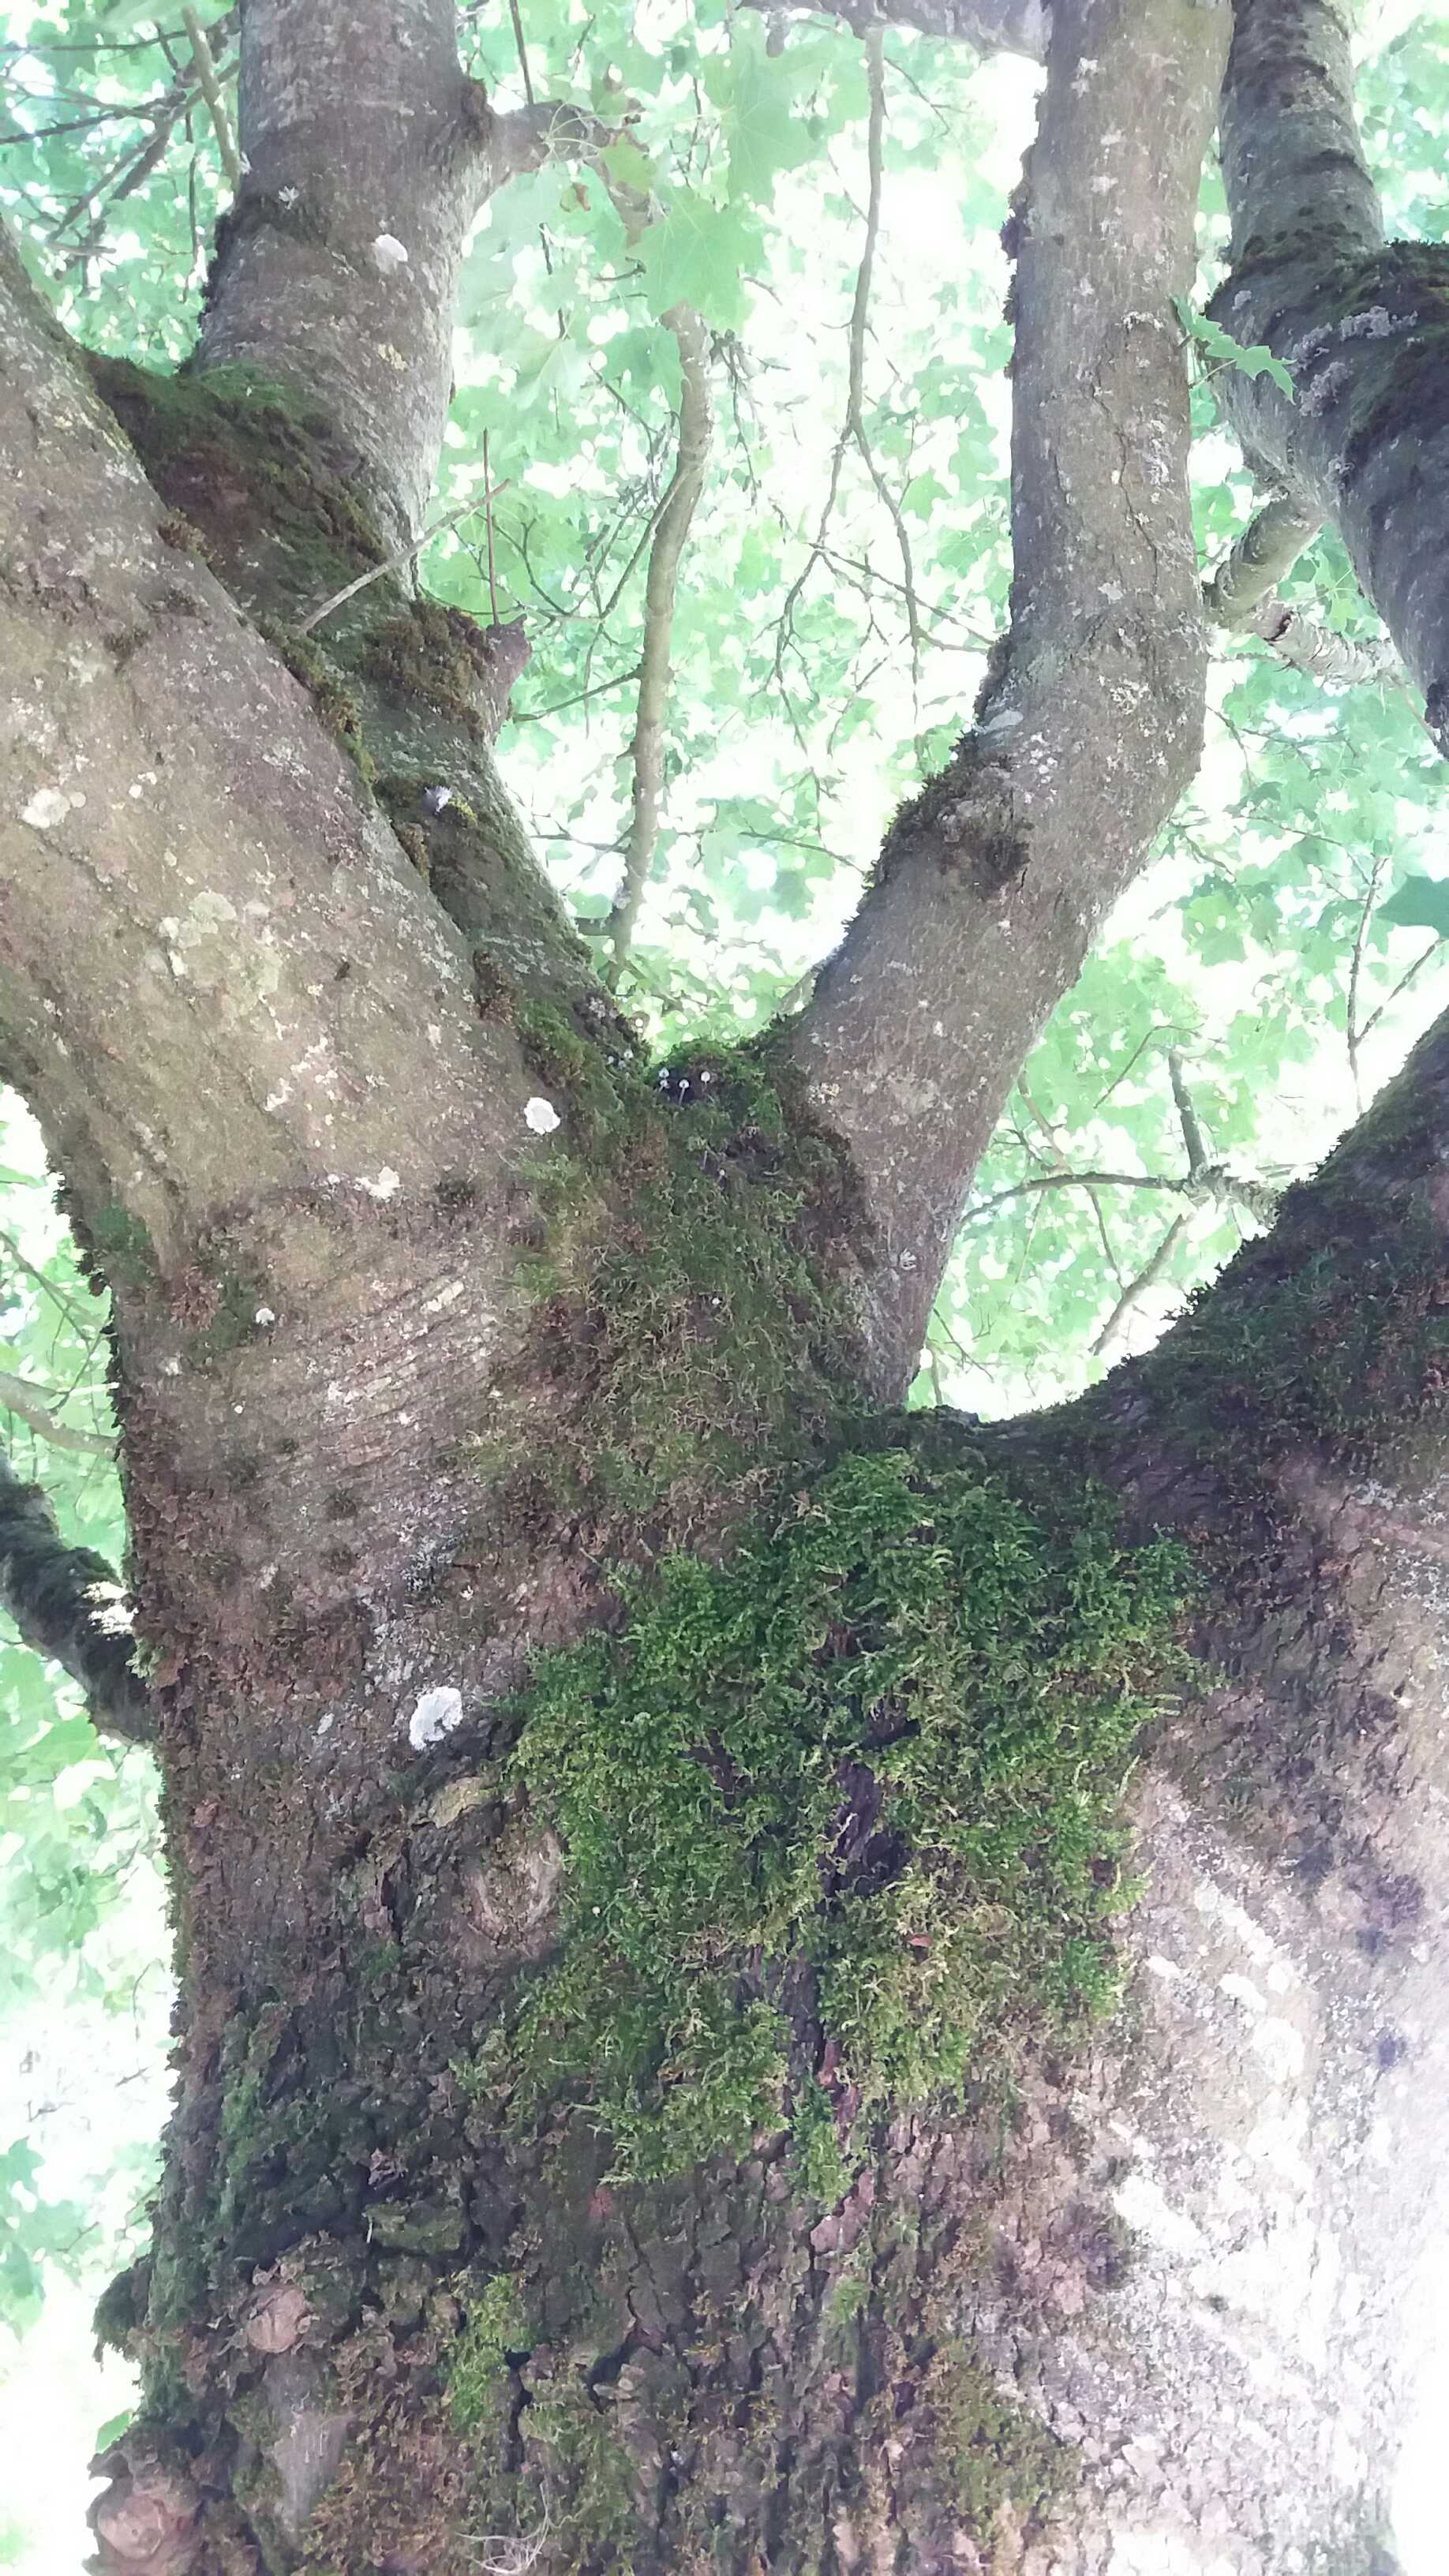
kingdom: Fungi
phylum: Basidiomycota
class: Agaricomycetes
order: Agaricales
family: Mycenaceae
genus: Mycena
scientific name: Mycena pseudocorticola
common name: gråblå bark-huesvamp
